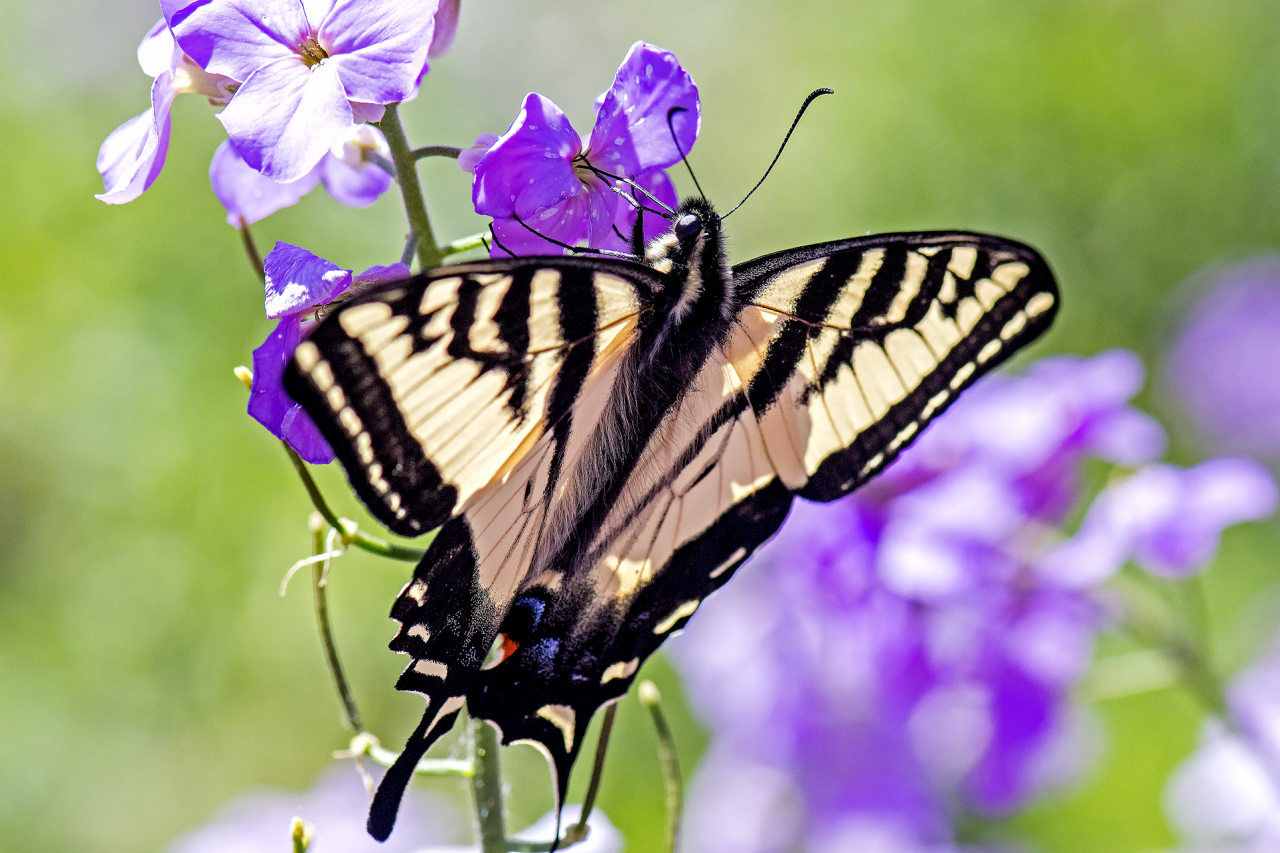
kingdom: Animalia
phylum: Arthropoda
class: Insecta
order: Lepidoptera
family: Papilionidae
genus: Pterourus
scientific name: Pterourus rutulus
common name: Western Tiger Swallowtail
